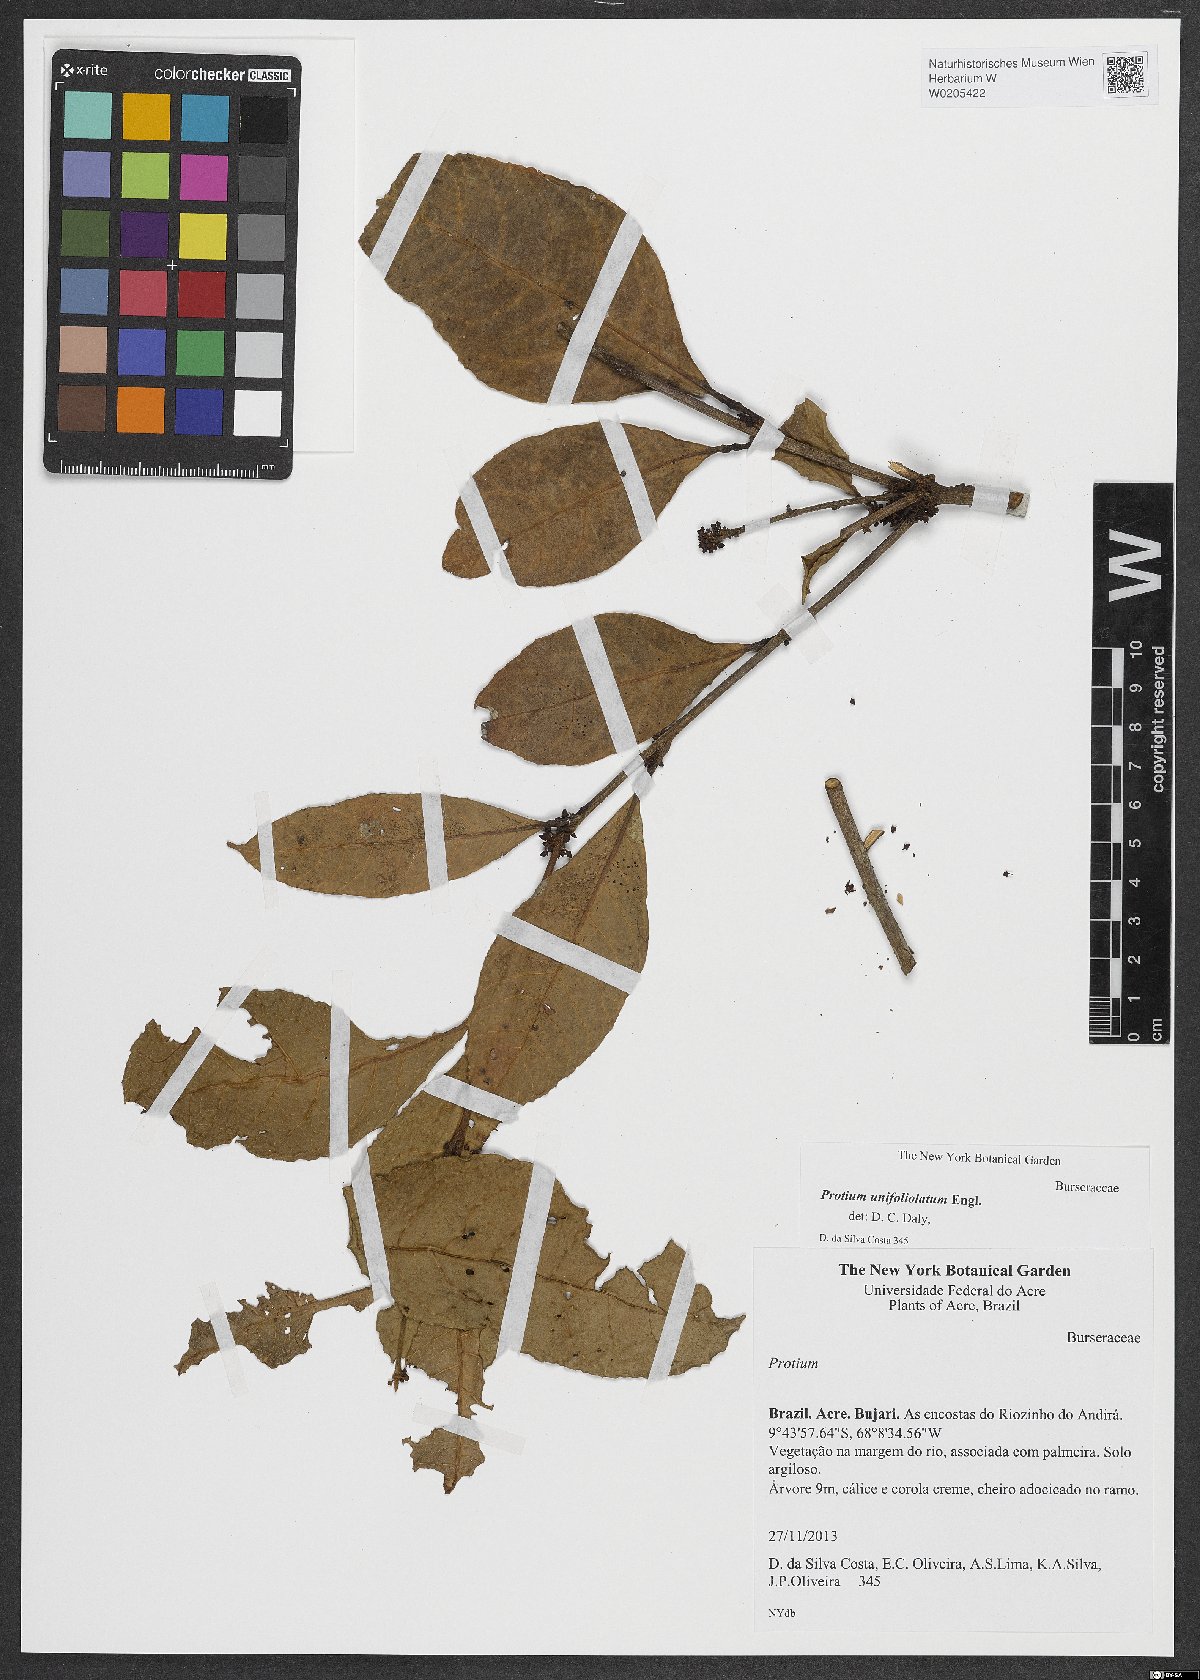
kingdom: Plantae
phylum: Tracheophyta
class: Magnoliopsida
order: Sapindales
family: Burseraceae
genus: Protium
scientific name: Protium unifoliolatum
